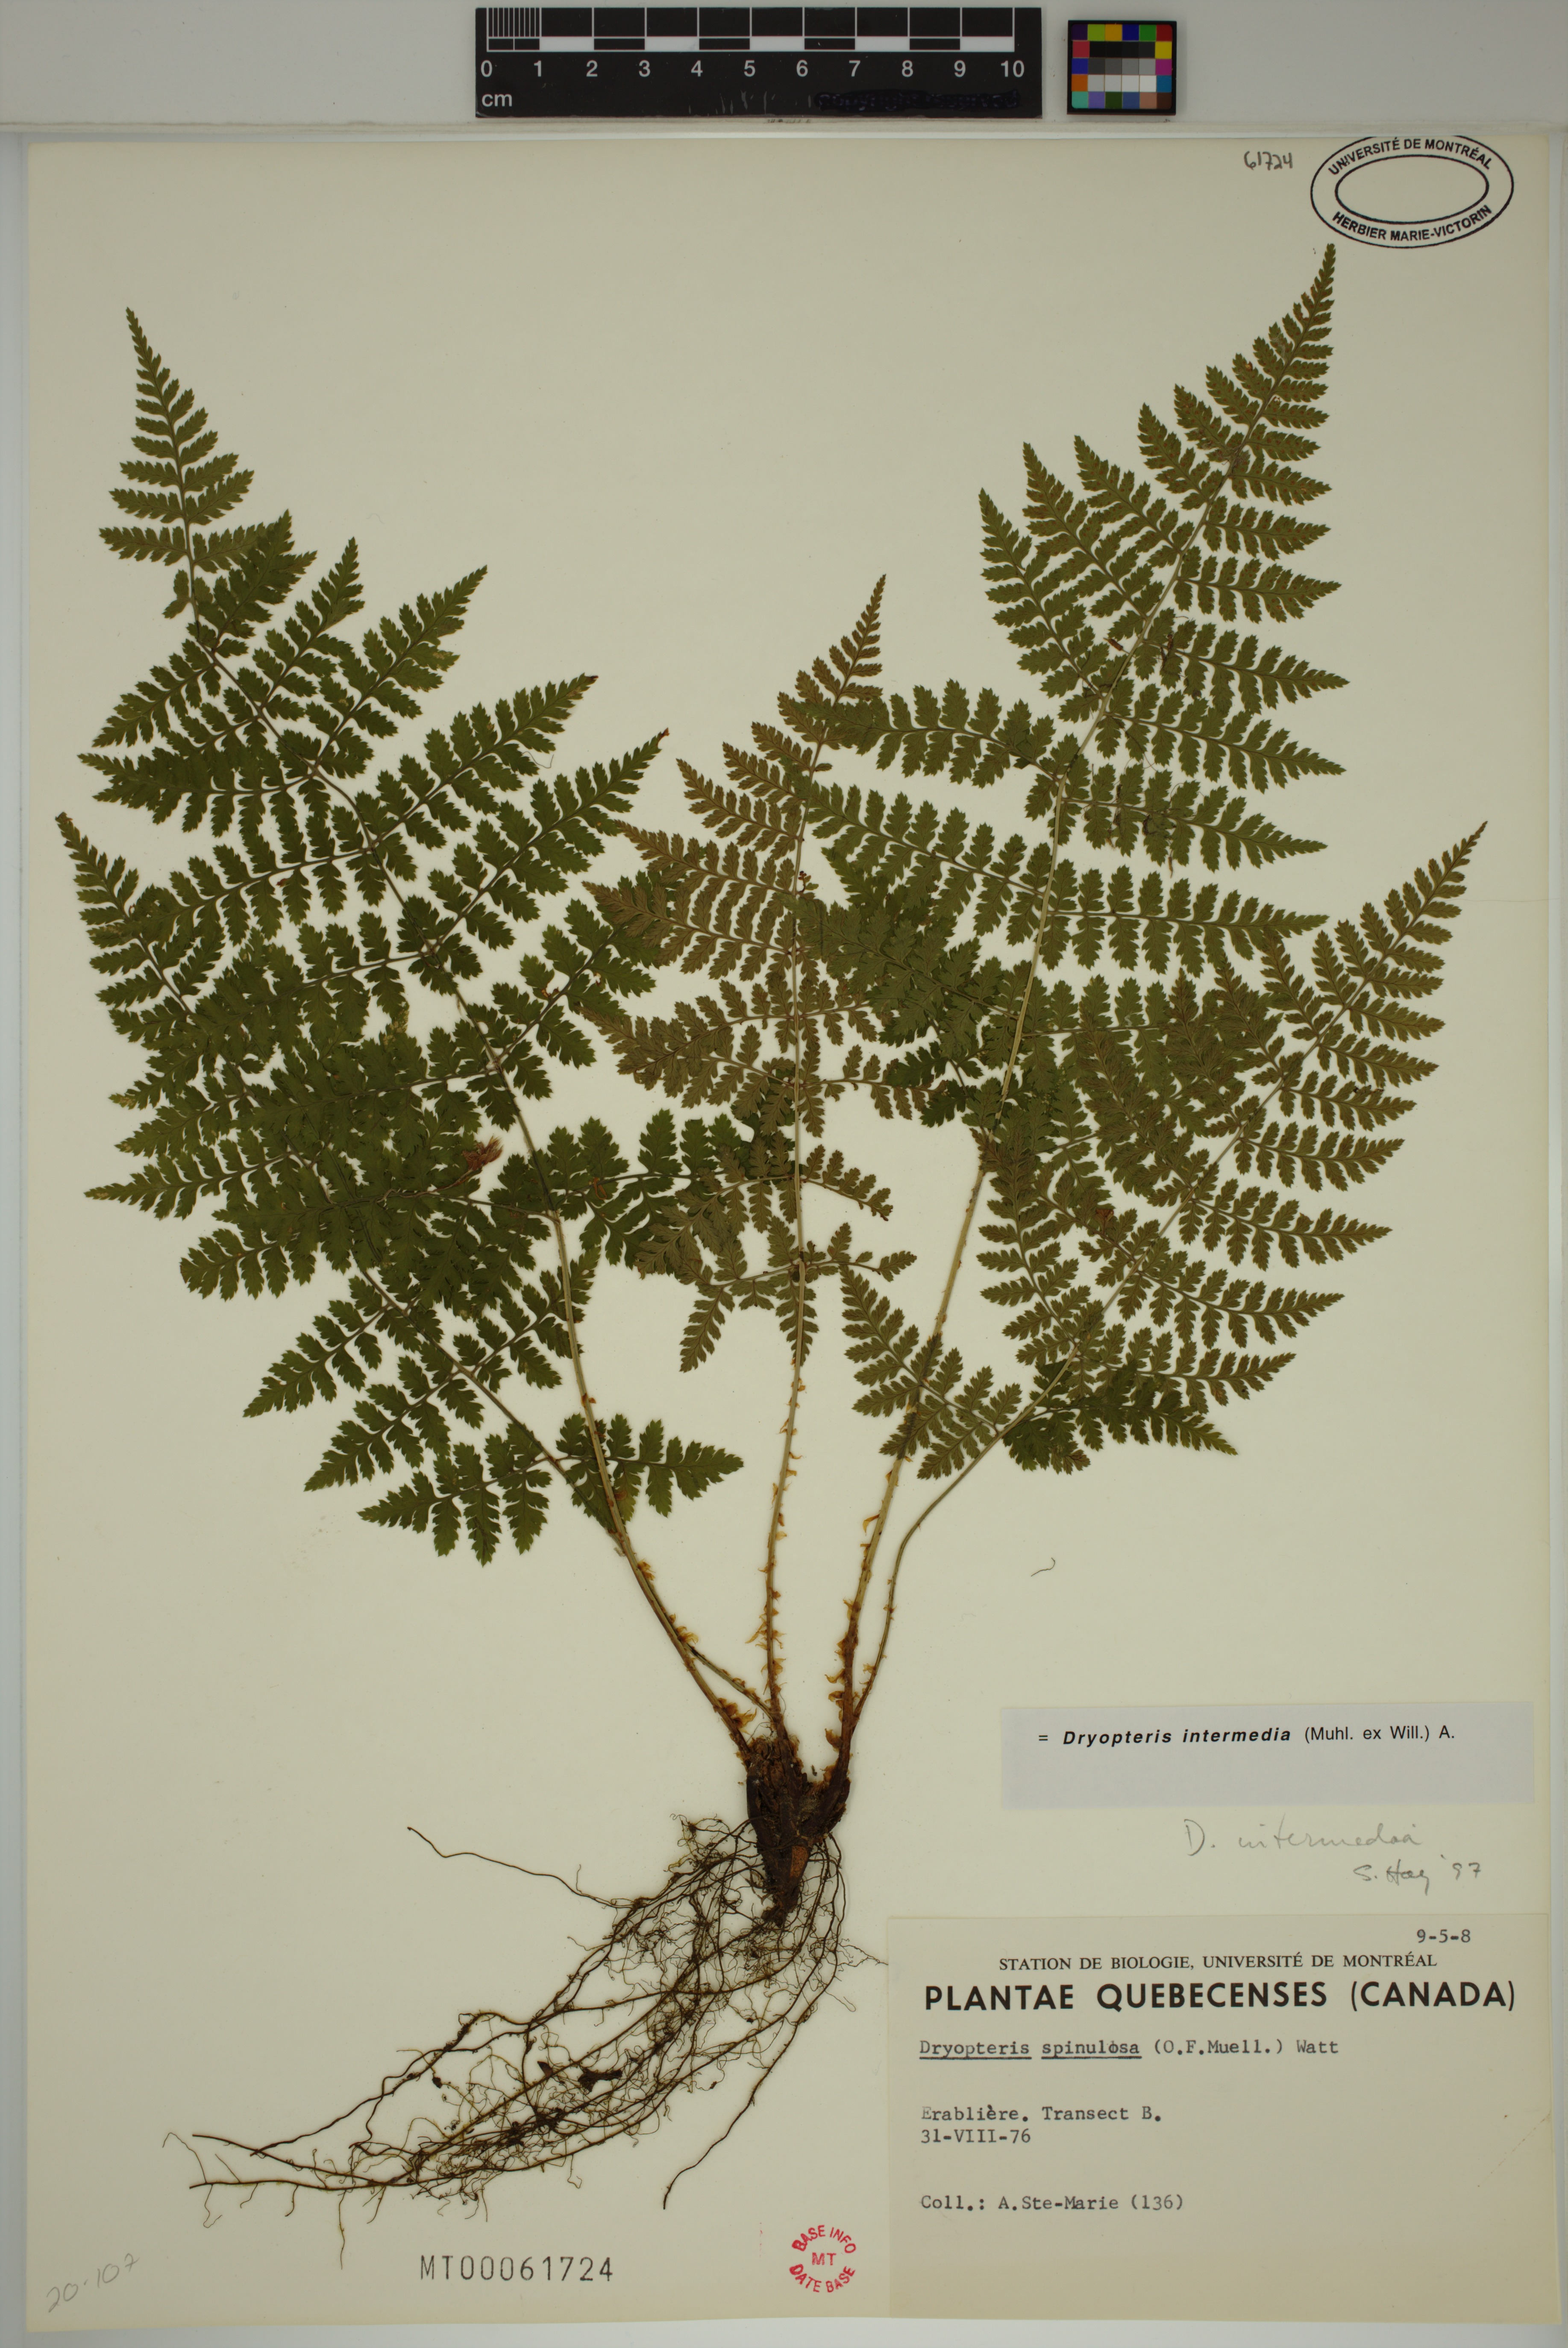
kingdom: Plantae
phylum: Tracheophyta
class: Polypodiopsida
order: Polypodiales
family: Dryopteridaceae
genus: Dryopteris
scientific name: Dryopteris intermedia
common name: Evergreen wood fern
